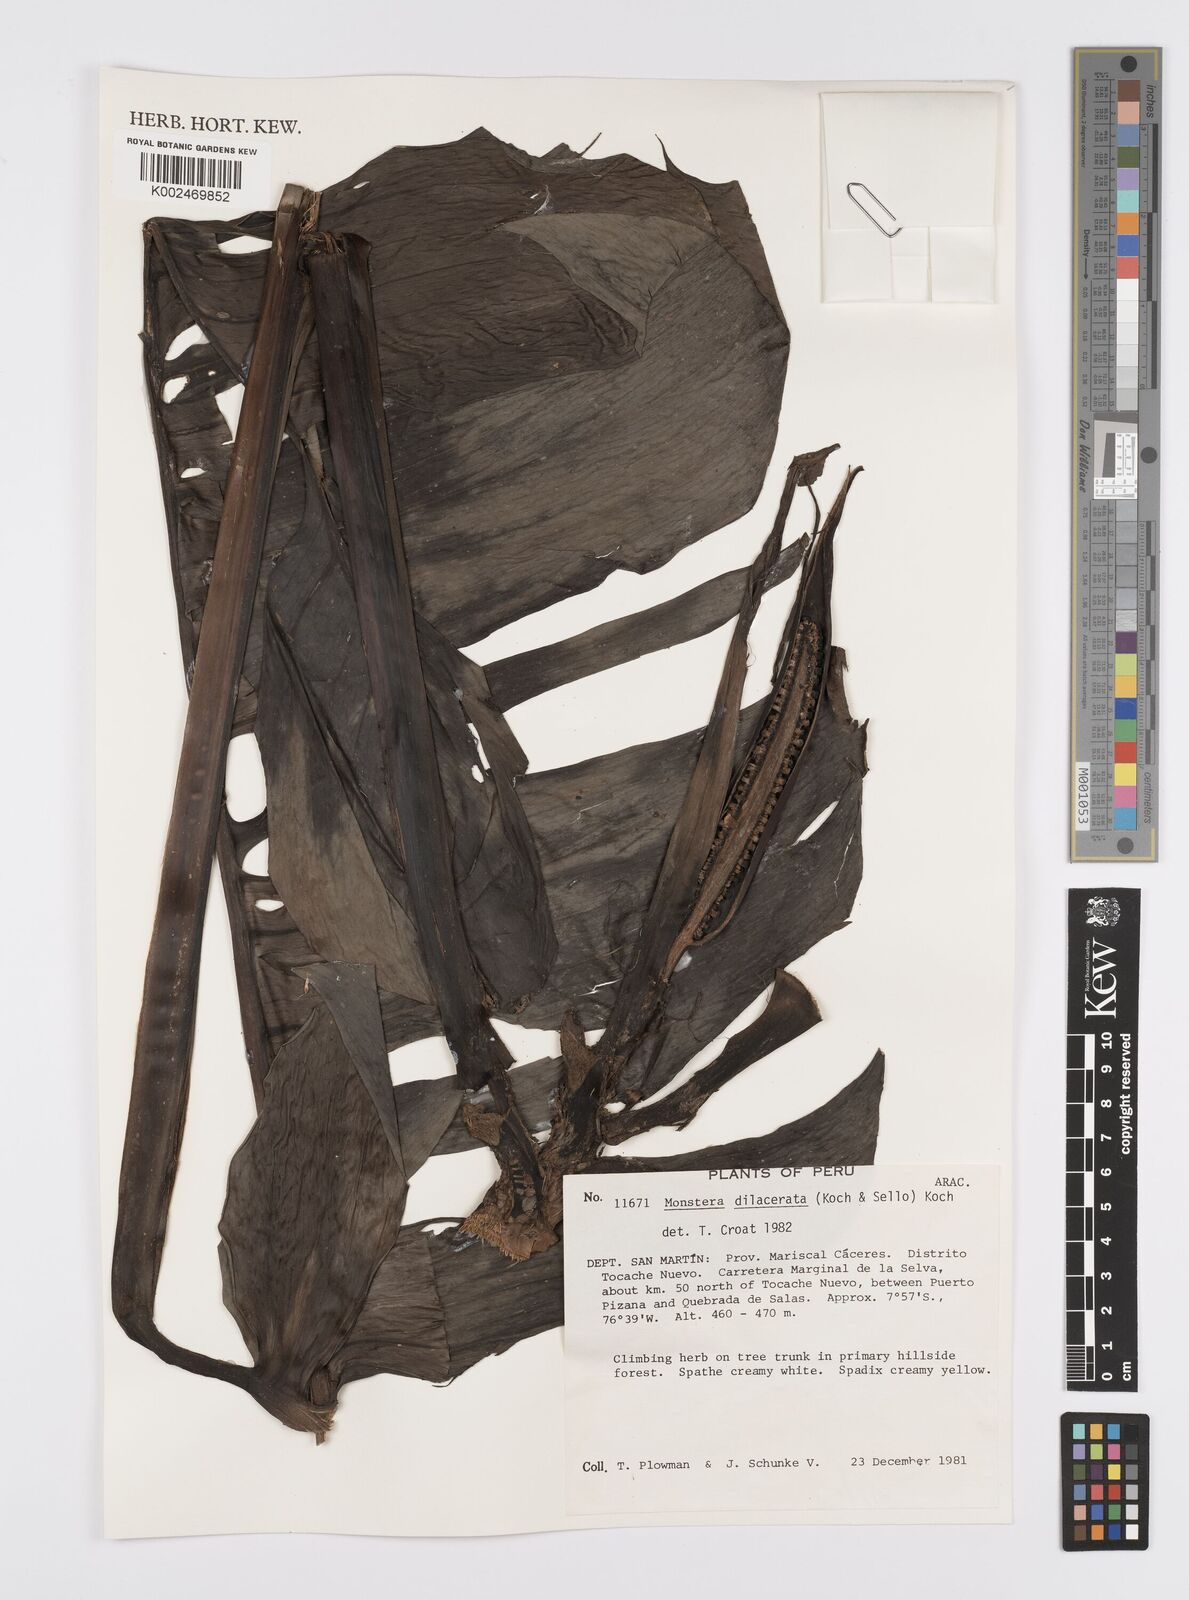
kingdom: Plantae
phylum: Tracheophyta
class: Liliopsida
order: Alismatales
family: Araceae
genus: Monstera
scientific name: Monstera dissecta
